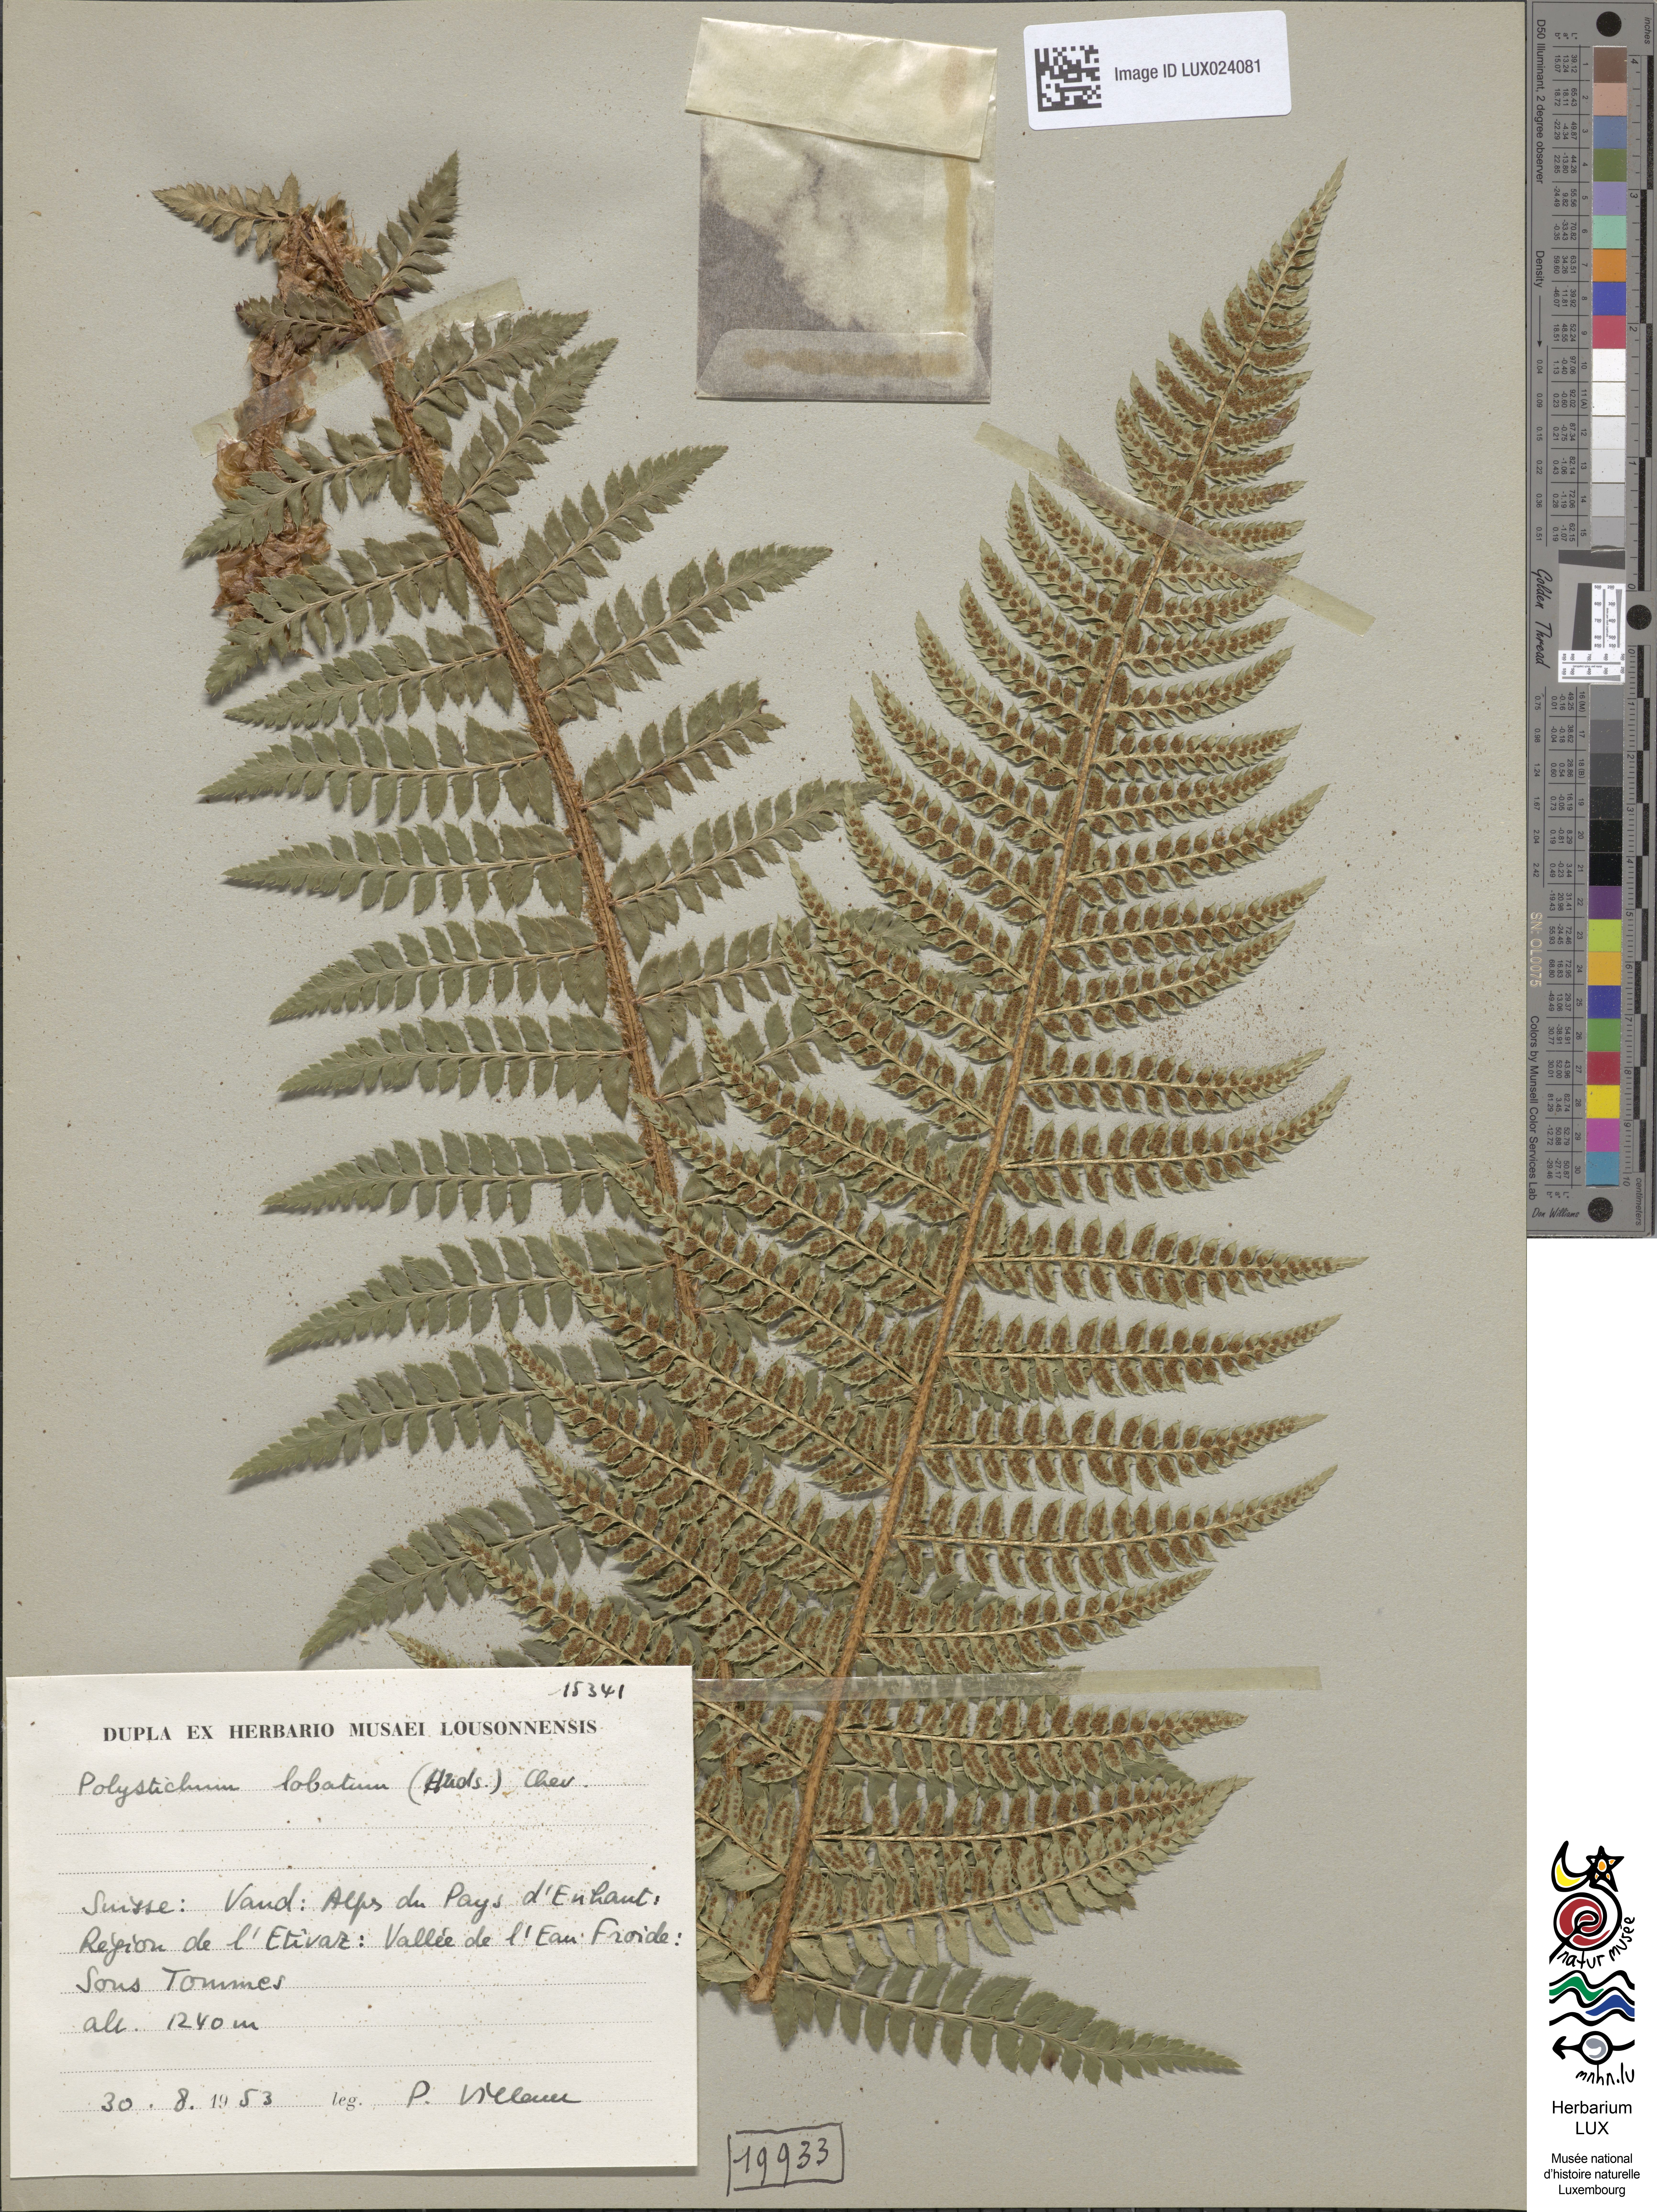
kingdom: Plantae
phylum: Tracheophyta
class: Polypodiopsida
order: Polypodiales
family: Dryopteridaceae
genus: Polystichum
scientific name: Polystichum aculeatum
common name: Hard shield-fern
